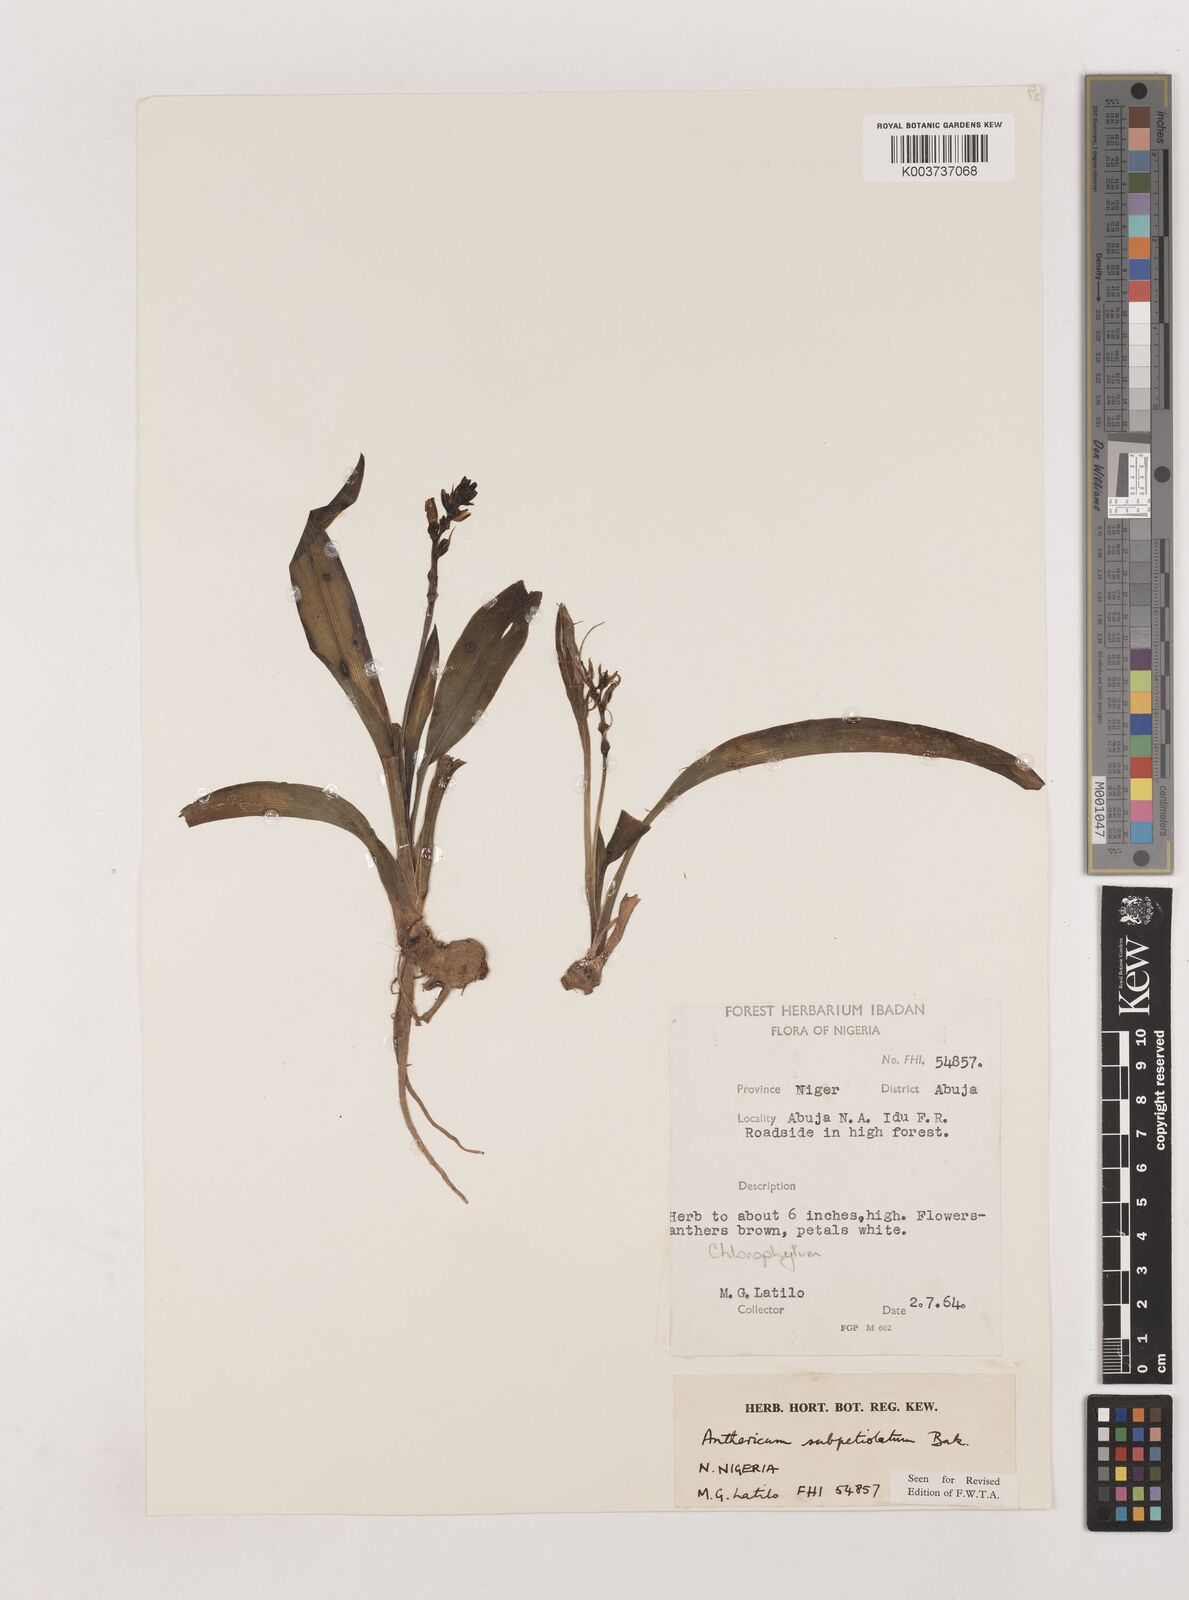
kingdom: Plantae
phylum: Tracheophyta
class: Liliopsida
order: Asparagales
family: Asparagaceae
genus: Chlorophytum
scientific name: Chlorophytum subpetiolatum
